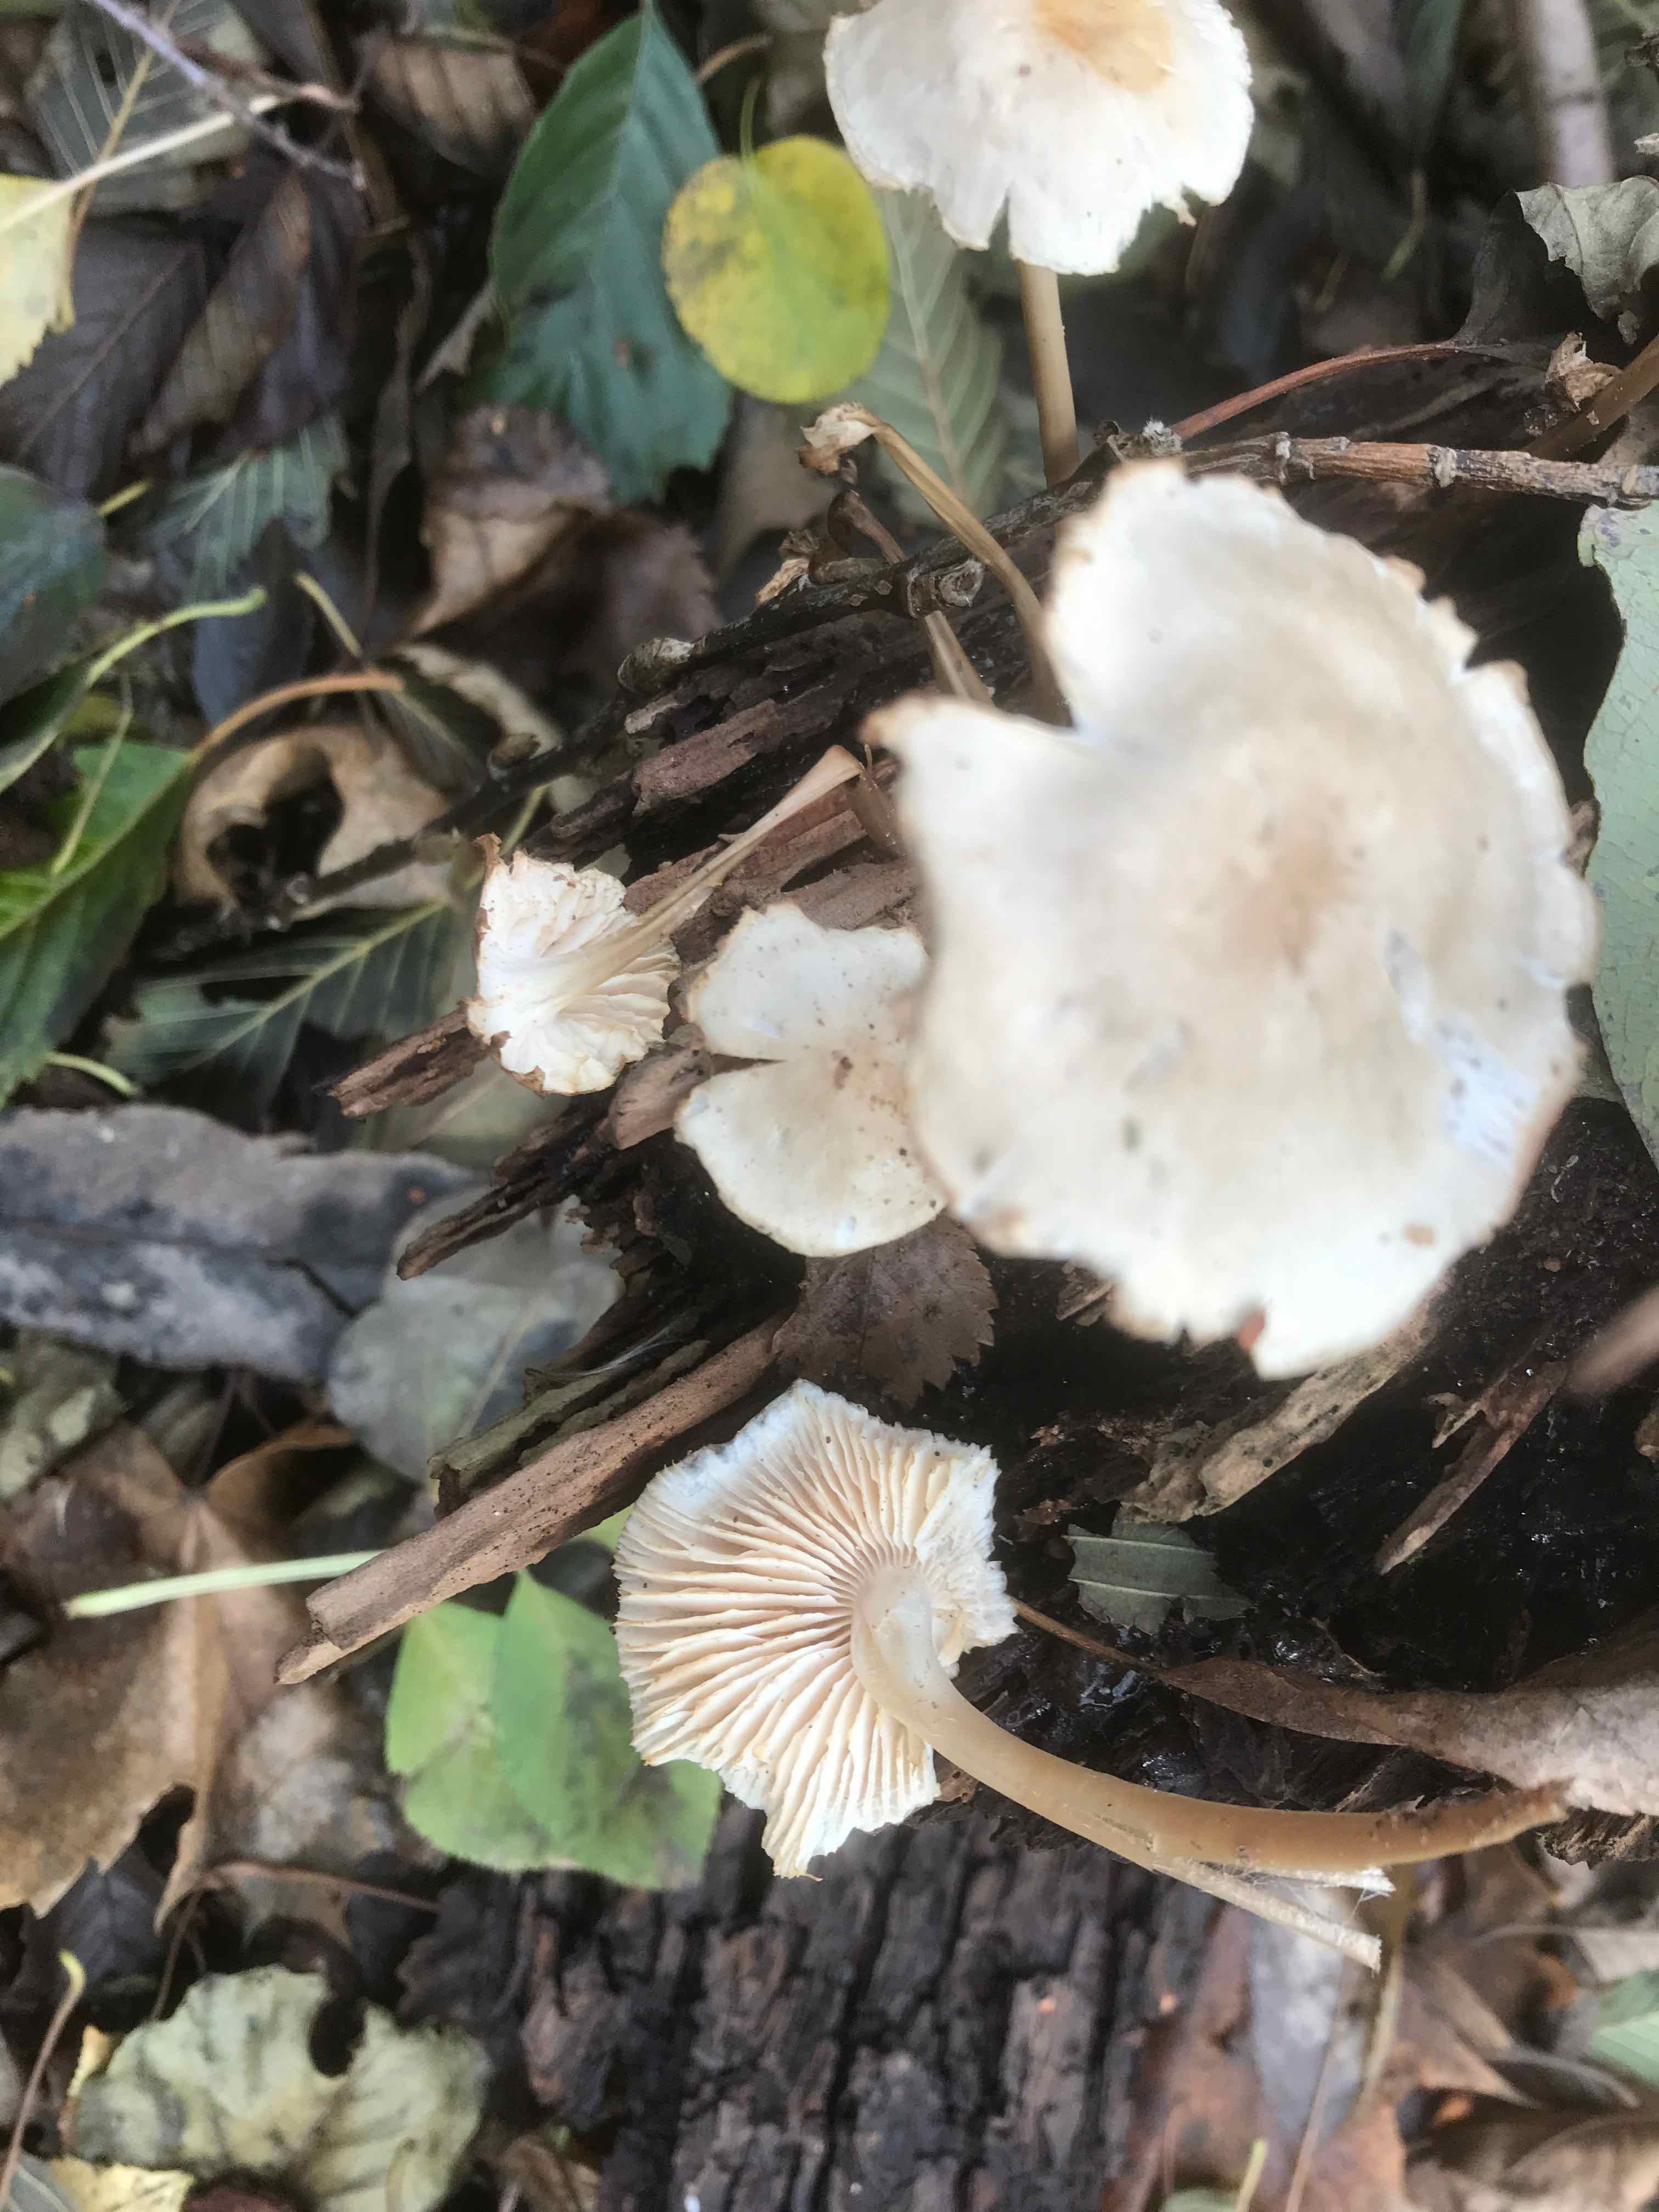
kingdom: Fungi
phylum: Basidiomycota
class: Agaricomycetes
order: Agaricales
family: Mycenaceae
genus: Mycena
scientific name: Mycena galericulata
